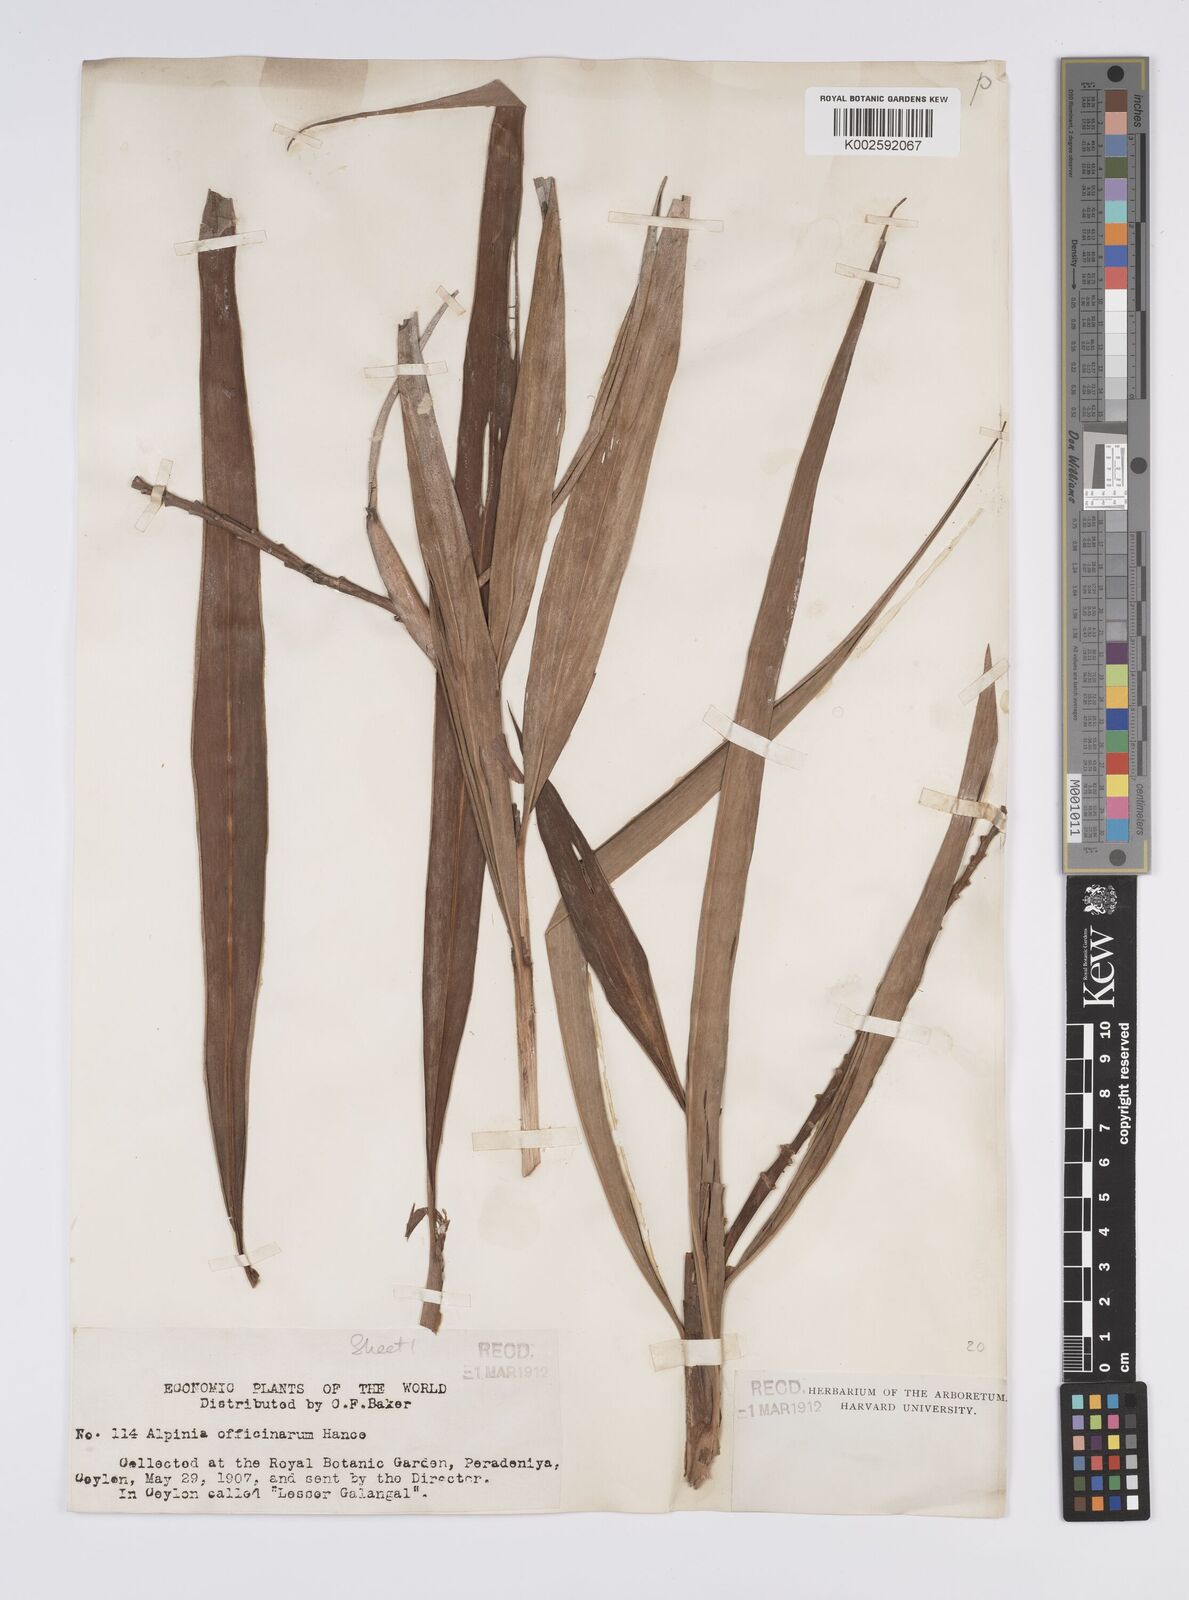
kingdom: Plantae
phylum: Tracheophyta
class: Liliopsida
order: Zingiberales
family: Zingiberaceae
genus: Alpinia
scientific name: Alpinia officinarum
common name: Chinese-ginger
